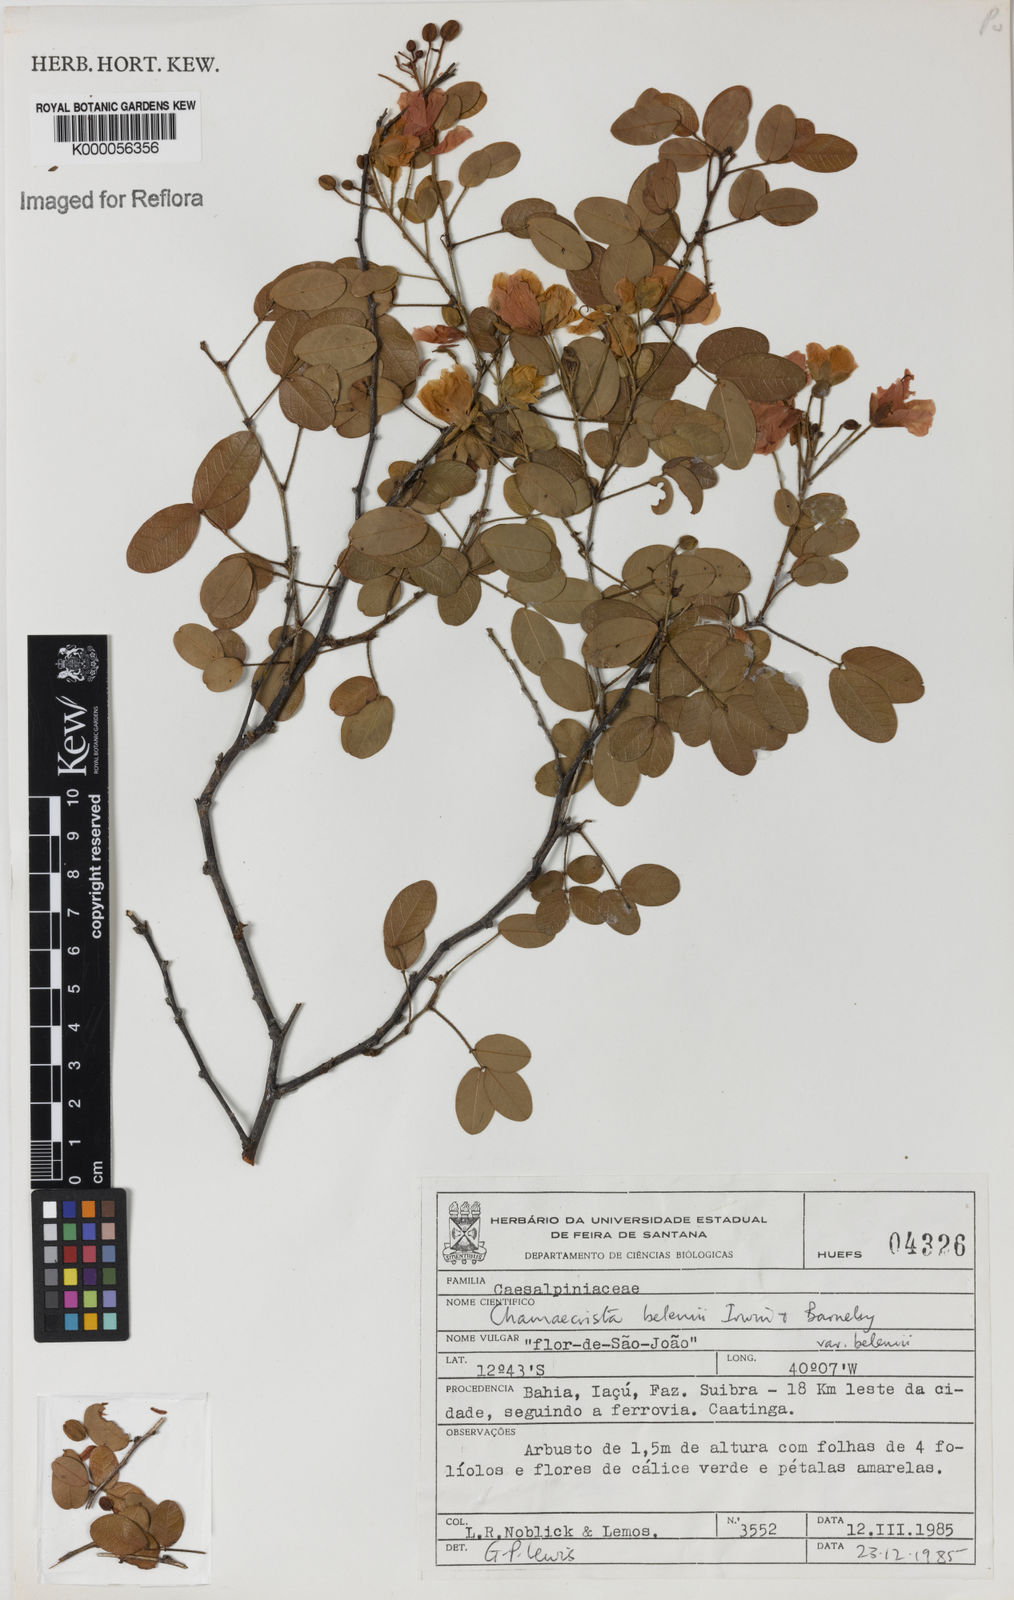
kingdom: Plantae
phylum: Tracheophyta
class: Magnoliopsida
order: Fabales
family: Fabaceae
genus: Chamaecrista
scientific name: Chamaecrista belemii
